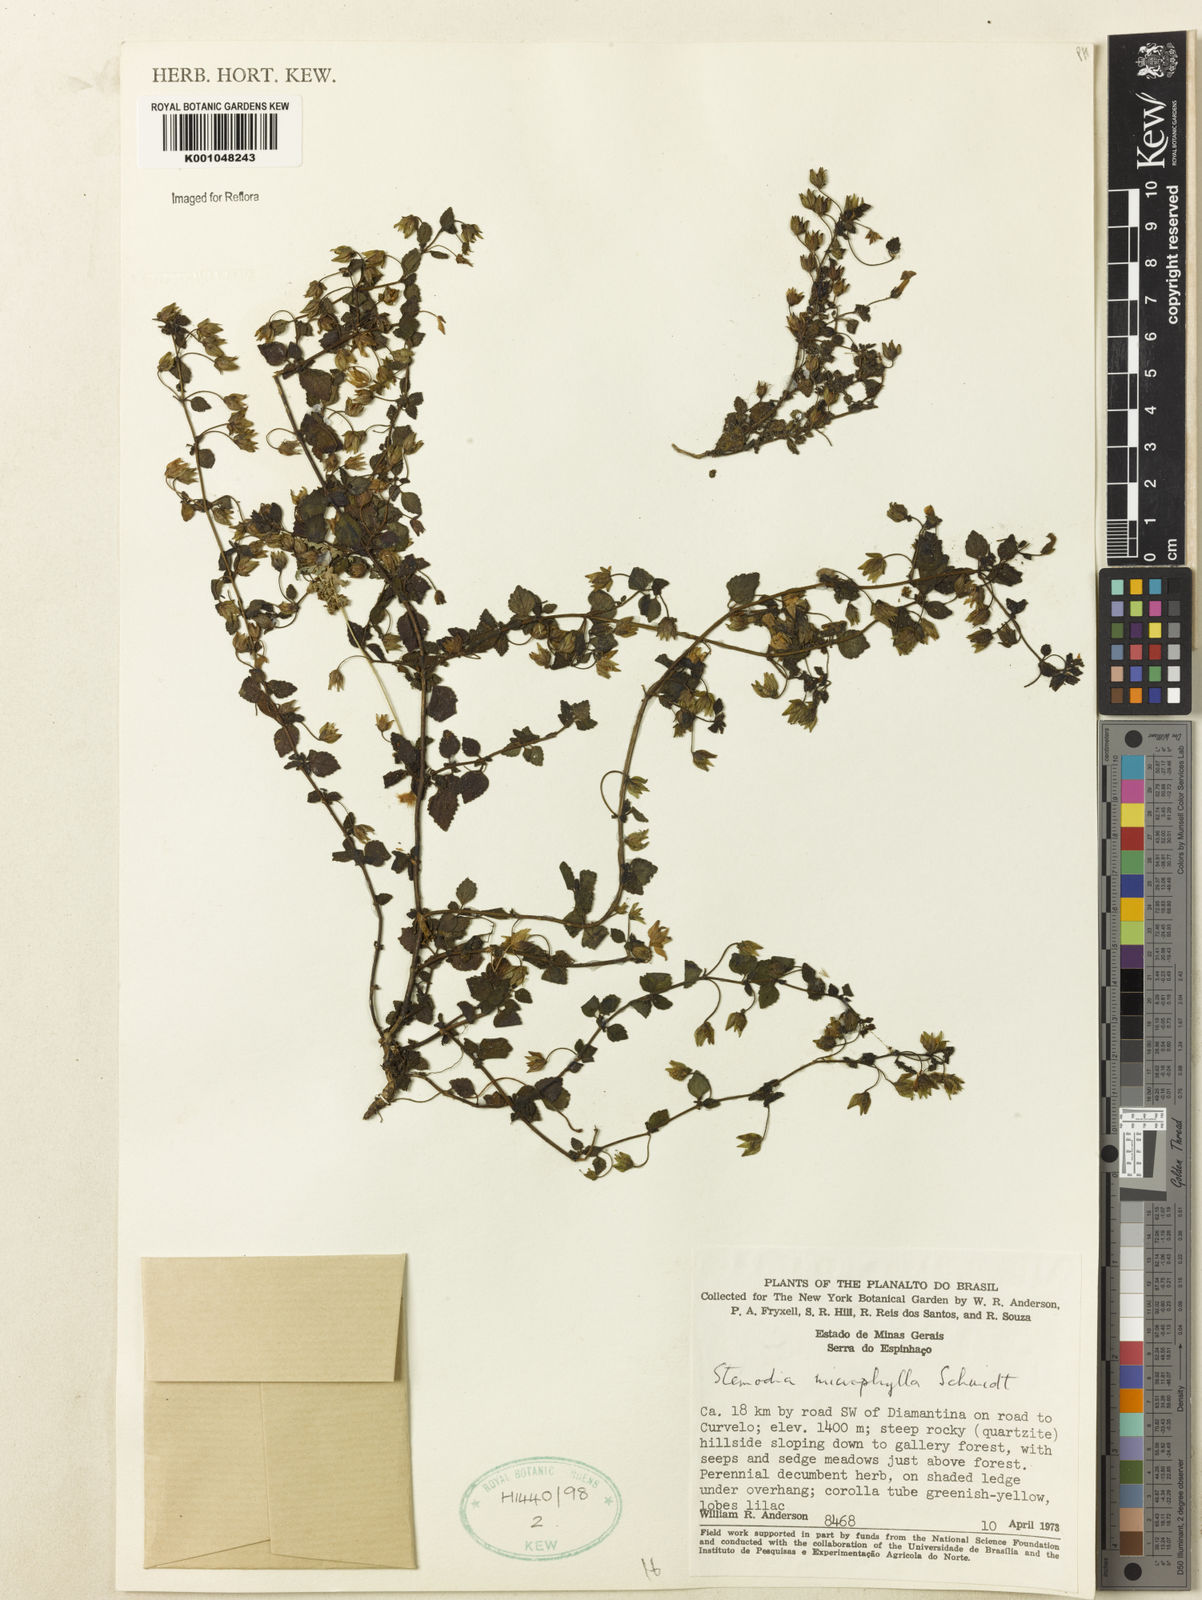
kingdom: Plantae
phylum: Tracheophyta
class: Magnoliopsida
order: Lamiales
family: Plantaginaceae
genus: Umbraria
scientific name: Umbraria microphylla
